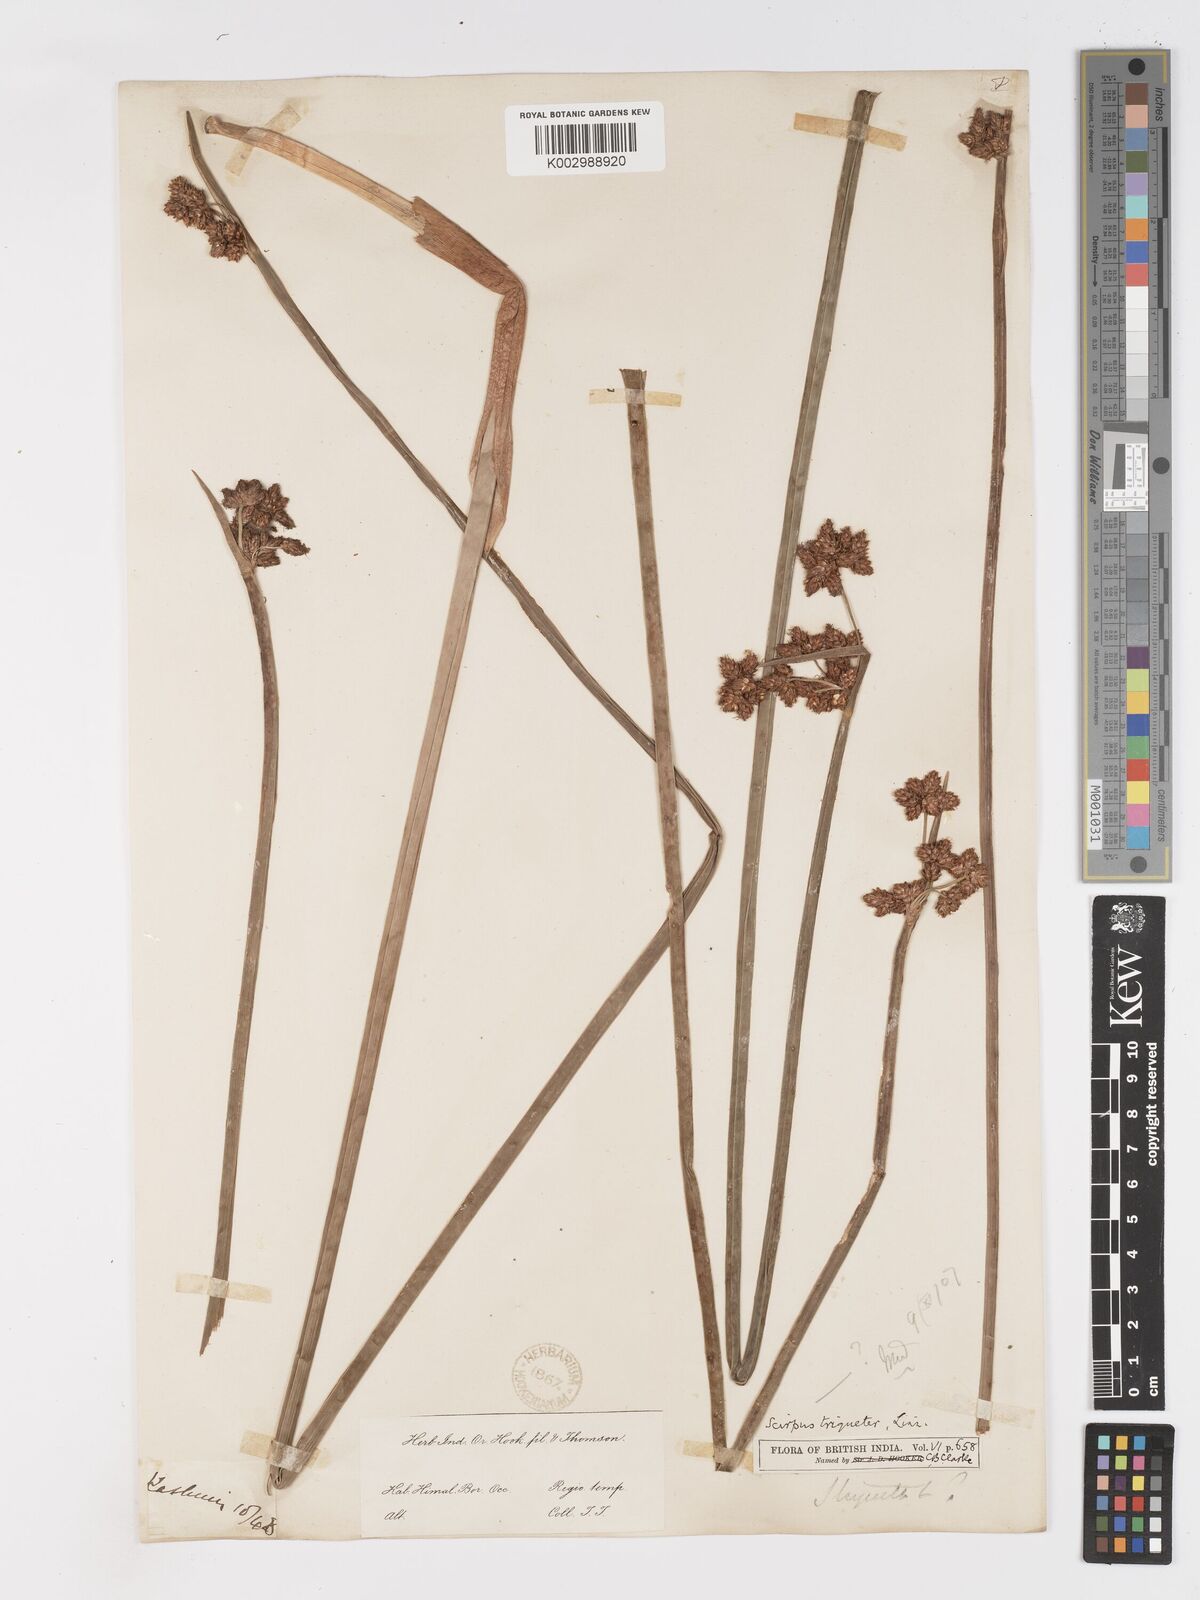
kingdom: Plantae
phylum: Tracheophyta
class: Liliopsida
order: Poales
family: Cyperaceae
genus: Schoenoplectus
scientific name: Schoenoplectus triqueter
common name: Triangular club-rush
